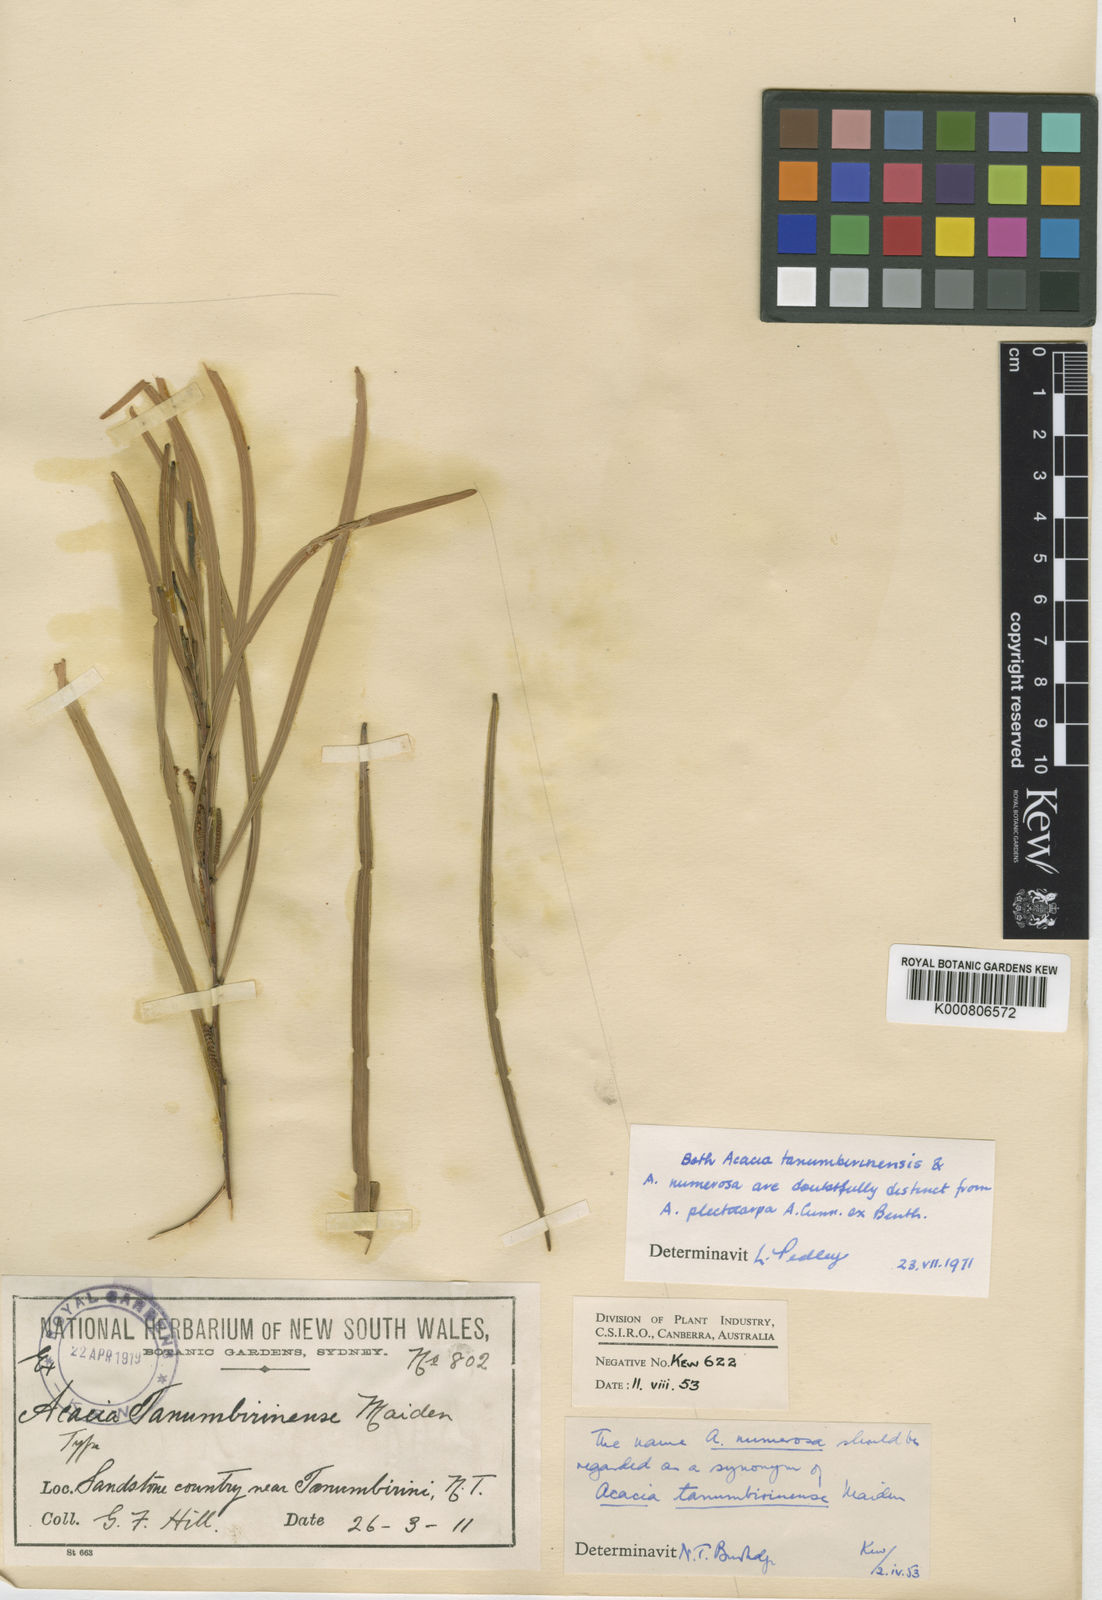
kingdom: Plantae
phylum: Tracheophyta
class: Magnoliopsida
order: Fabales
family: Fabaceae
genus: Acacia
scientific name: Acacia plectocarpa
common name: Black wattle
